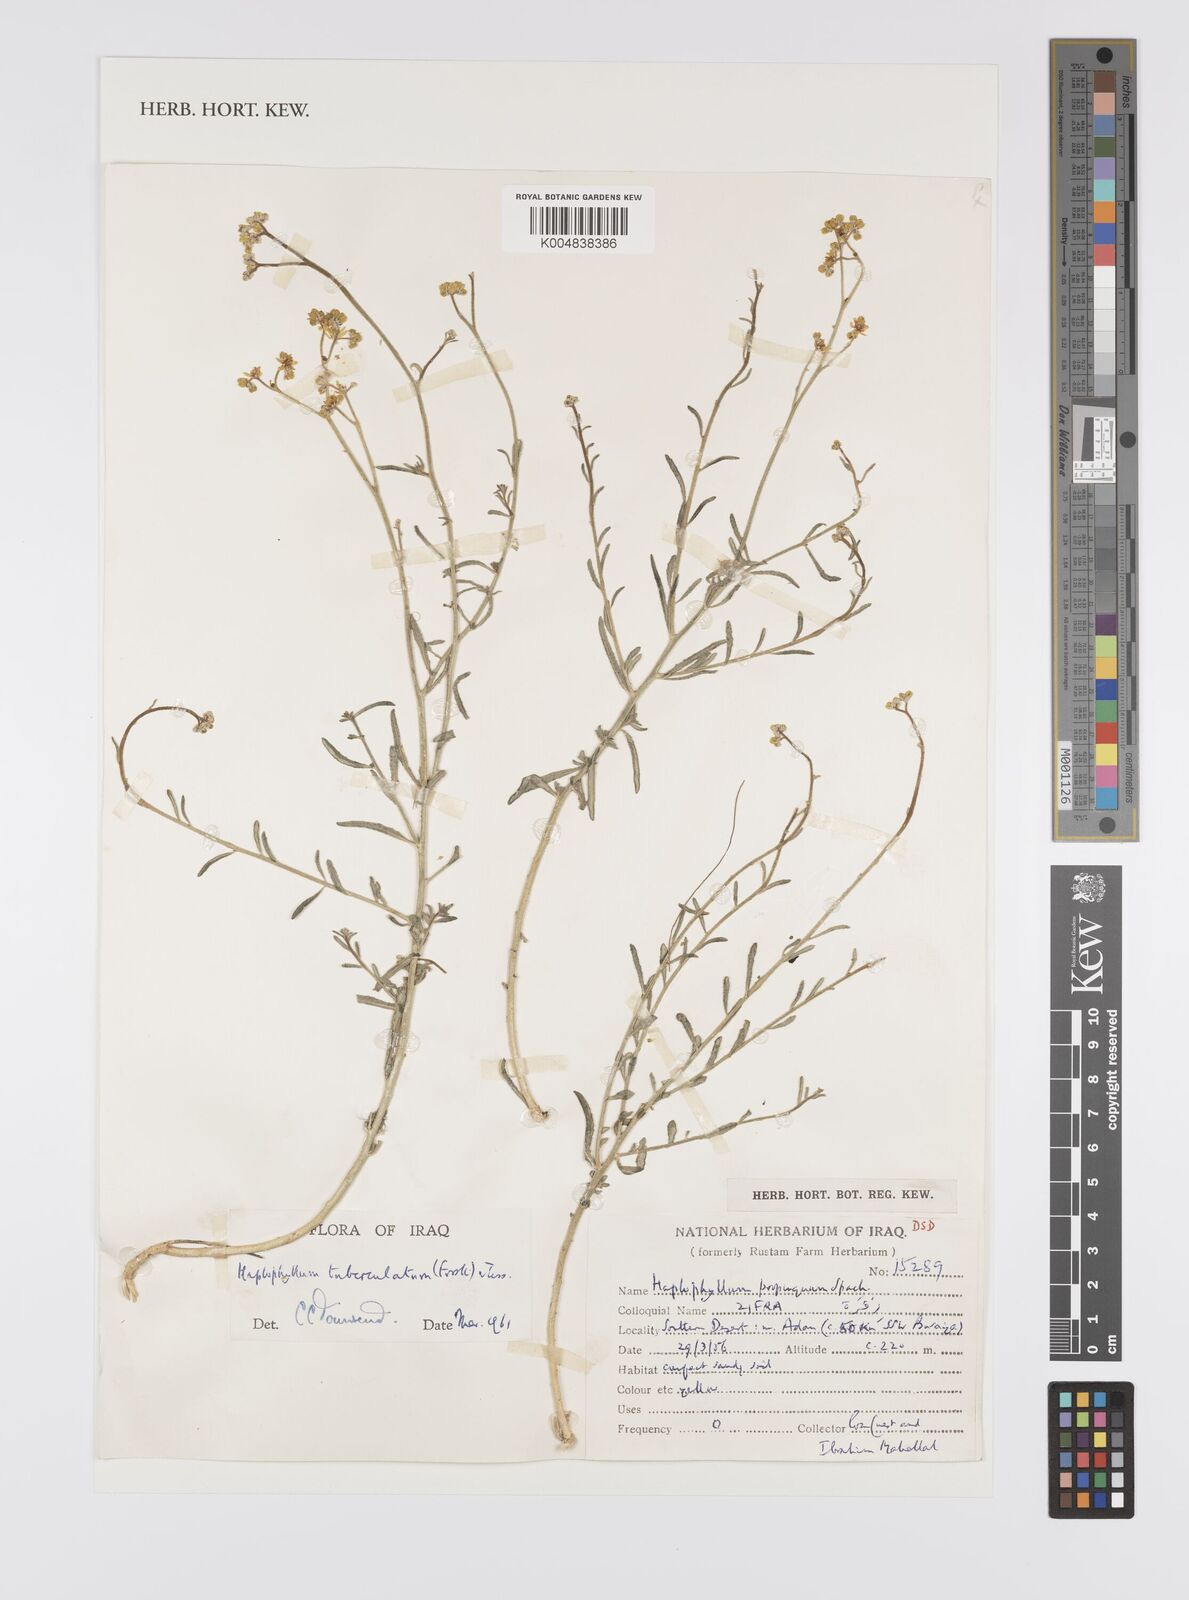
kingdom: Plantae
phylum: Tracheophyta
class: Magnoliopsida
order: Sapindales
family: Rutaceae
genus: Haplophyllum
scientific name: Haplophyllum tuberculatum
